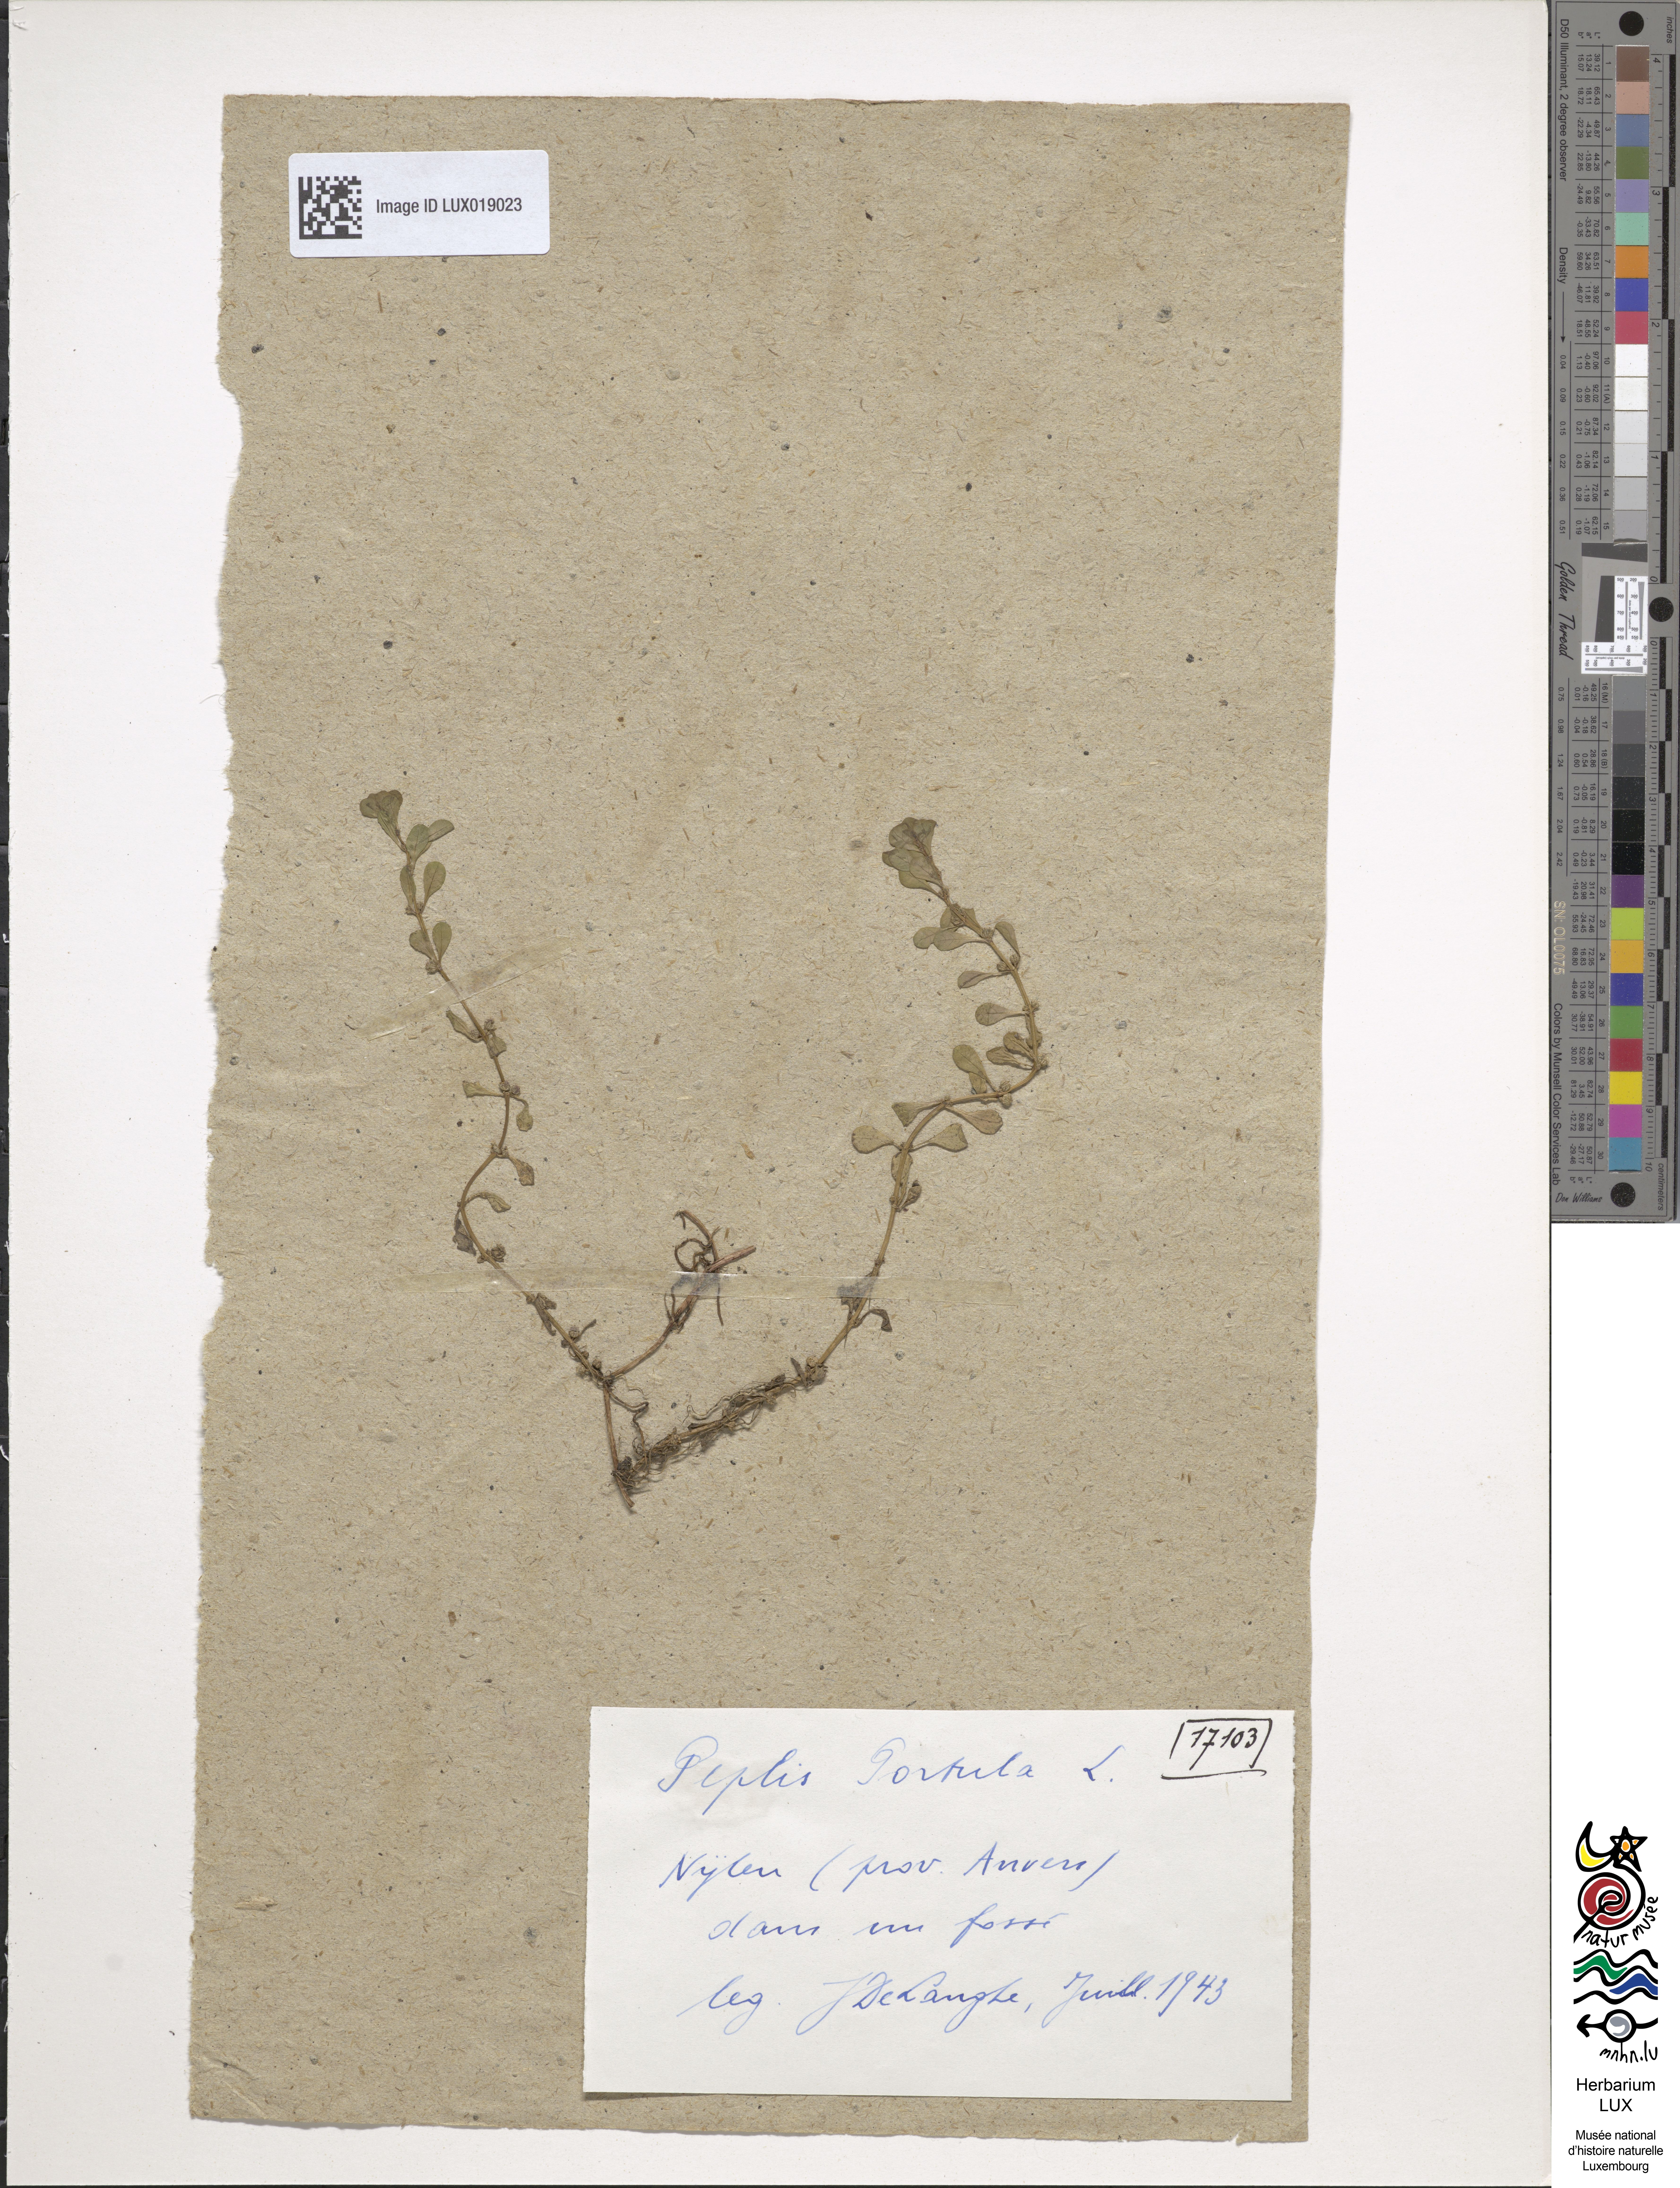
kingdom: Plantae
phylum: Tracheophyta
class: Magnoliopsida
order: Myrtales
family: Lythraceae
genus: Lythrum
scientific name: Lythrum portula
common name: Water purslane
